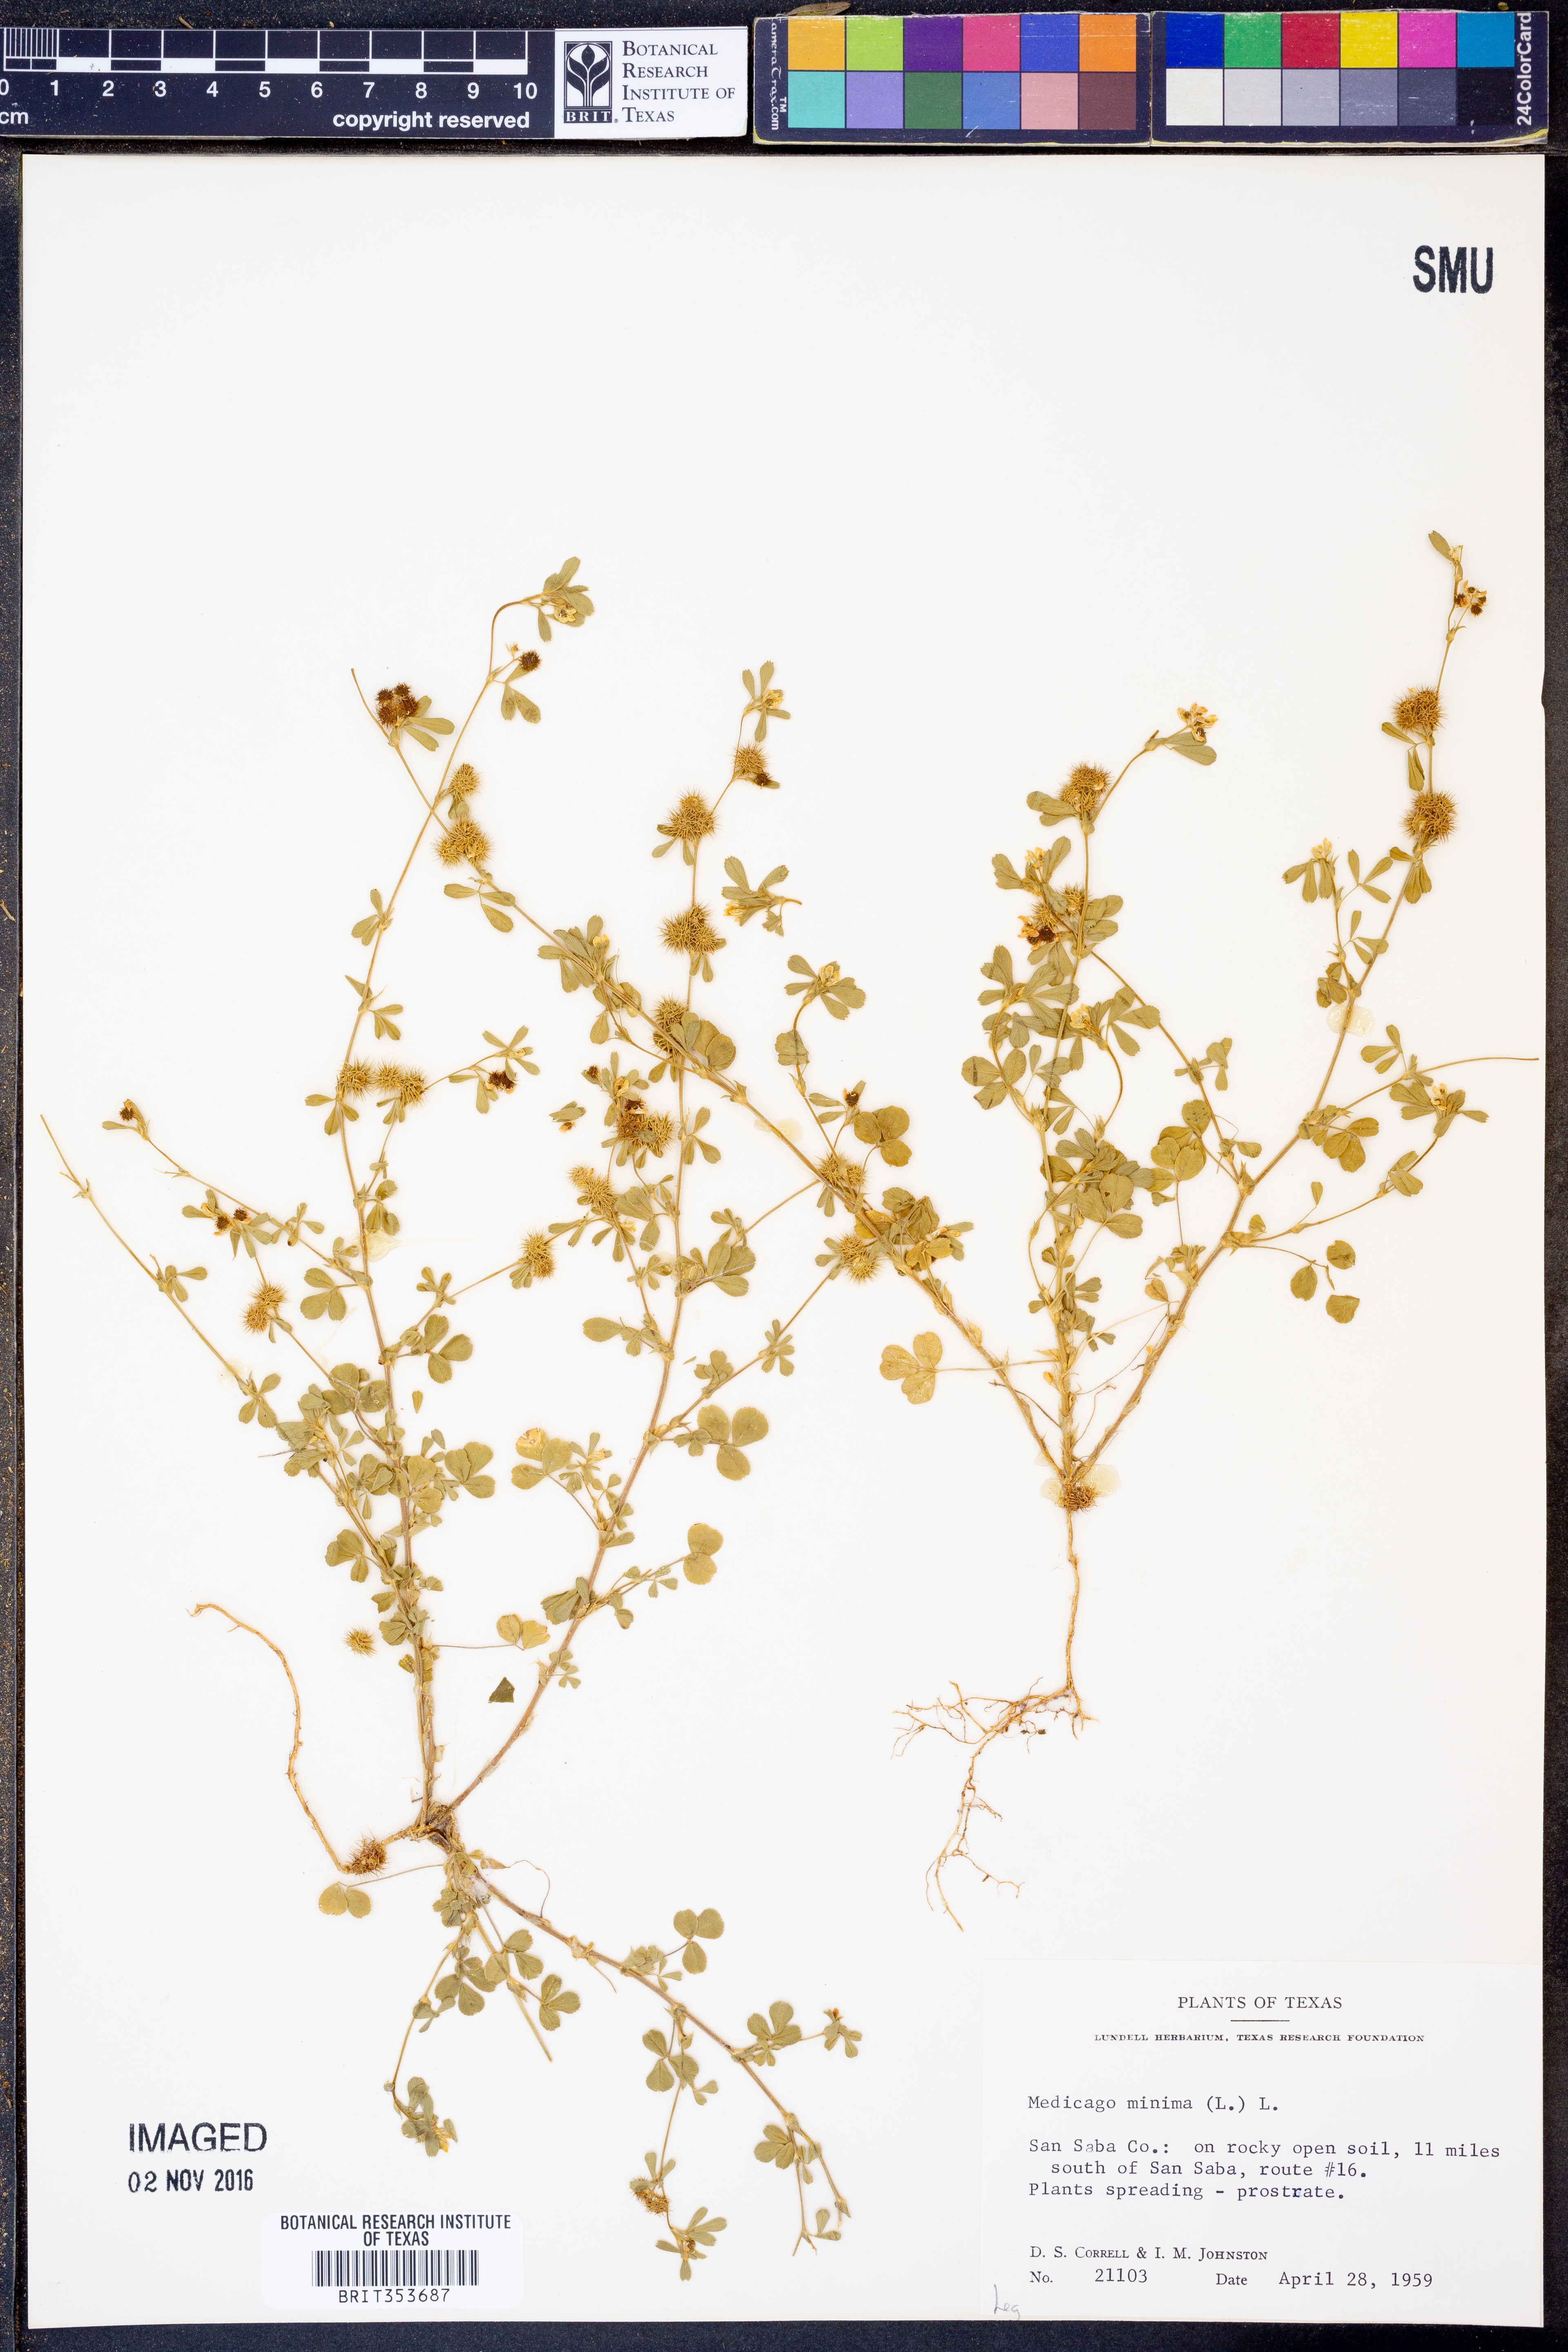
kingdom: Plantae
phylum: Tracheophyta
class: Magnoliopsida
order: Fabales
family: Fabaceae
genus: Medicago
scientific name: Medicago minima
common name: Little bur-clover
